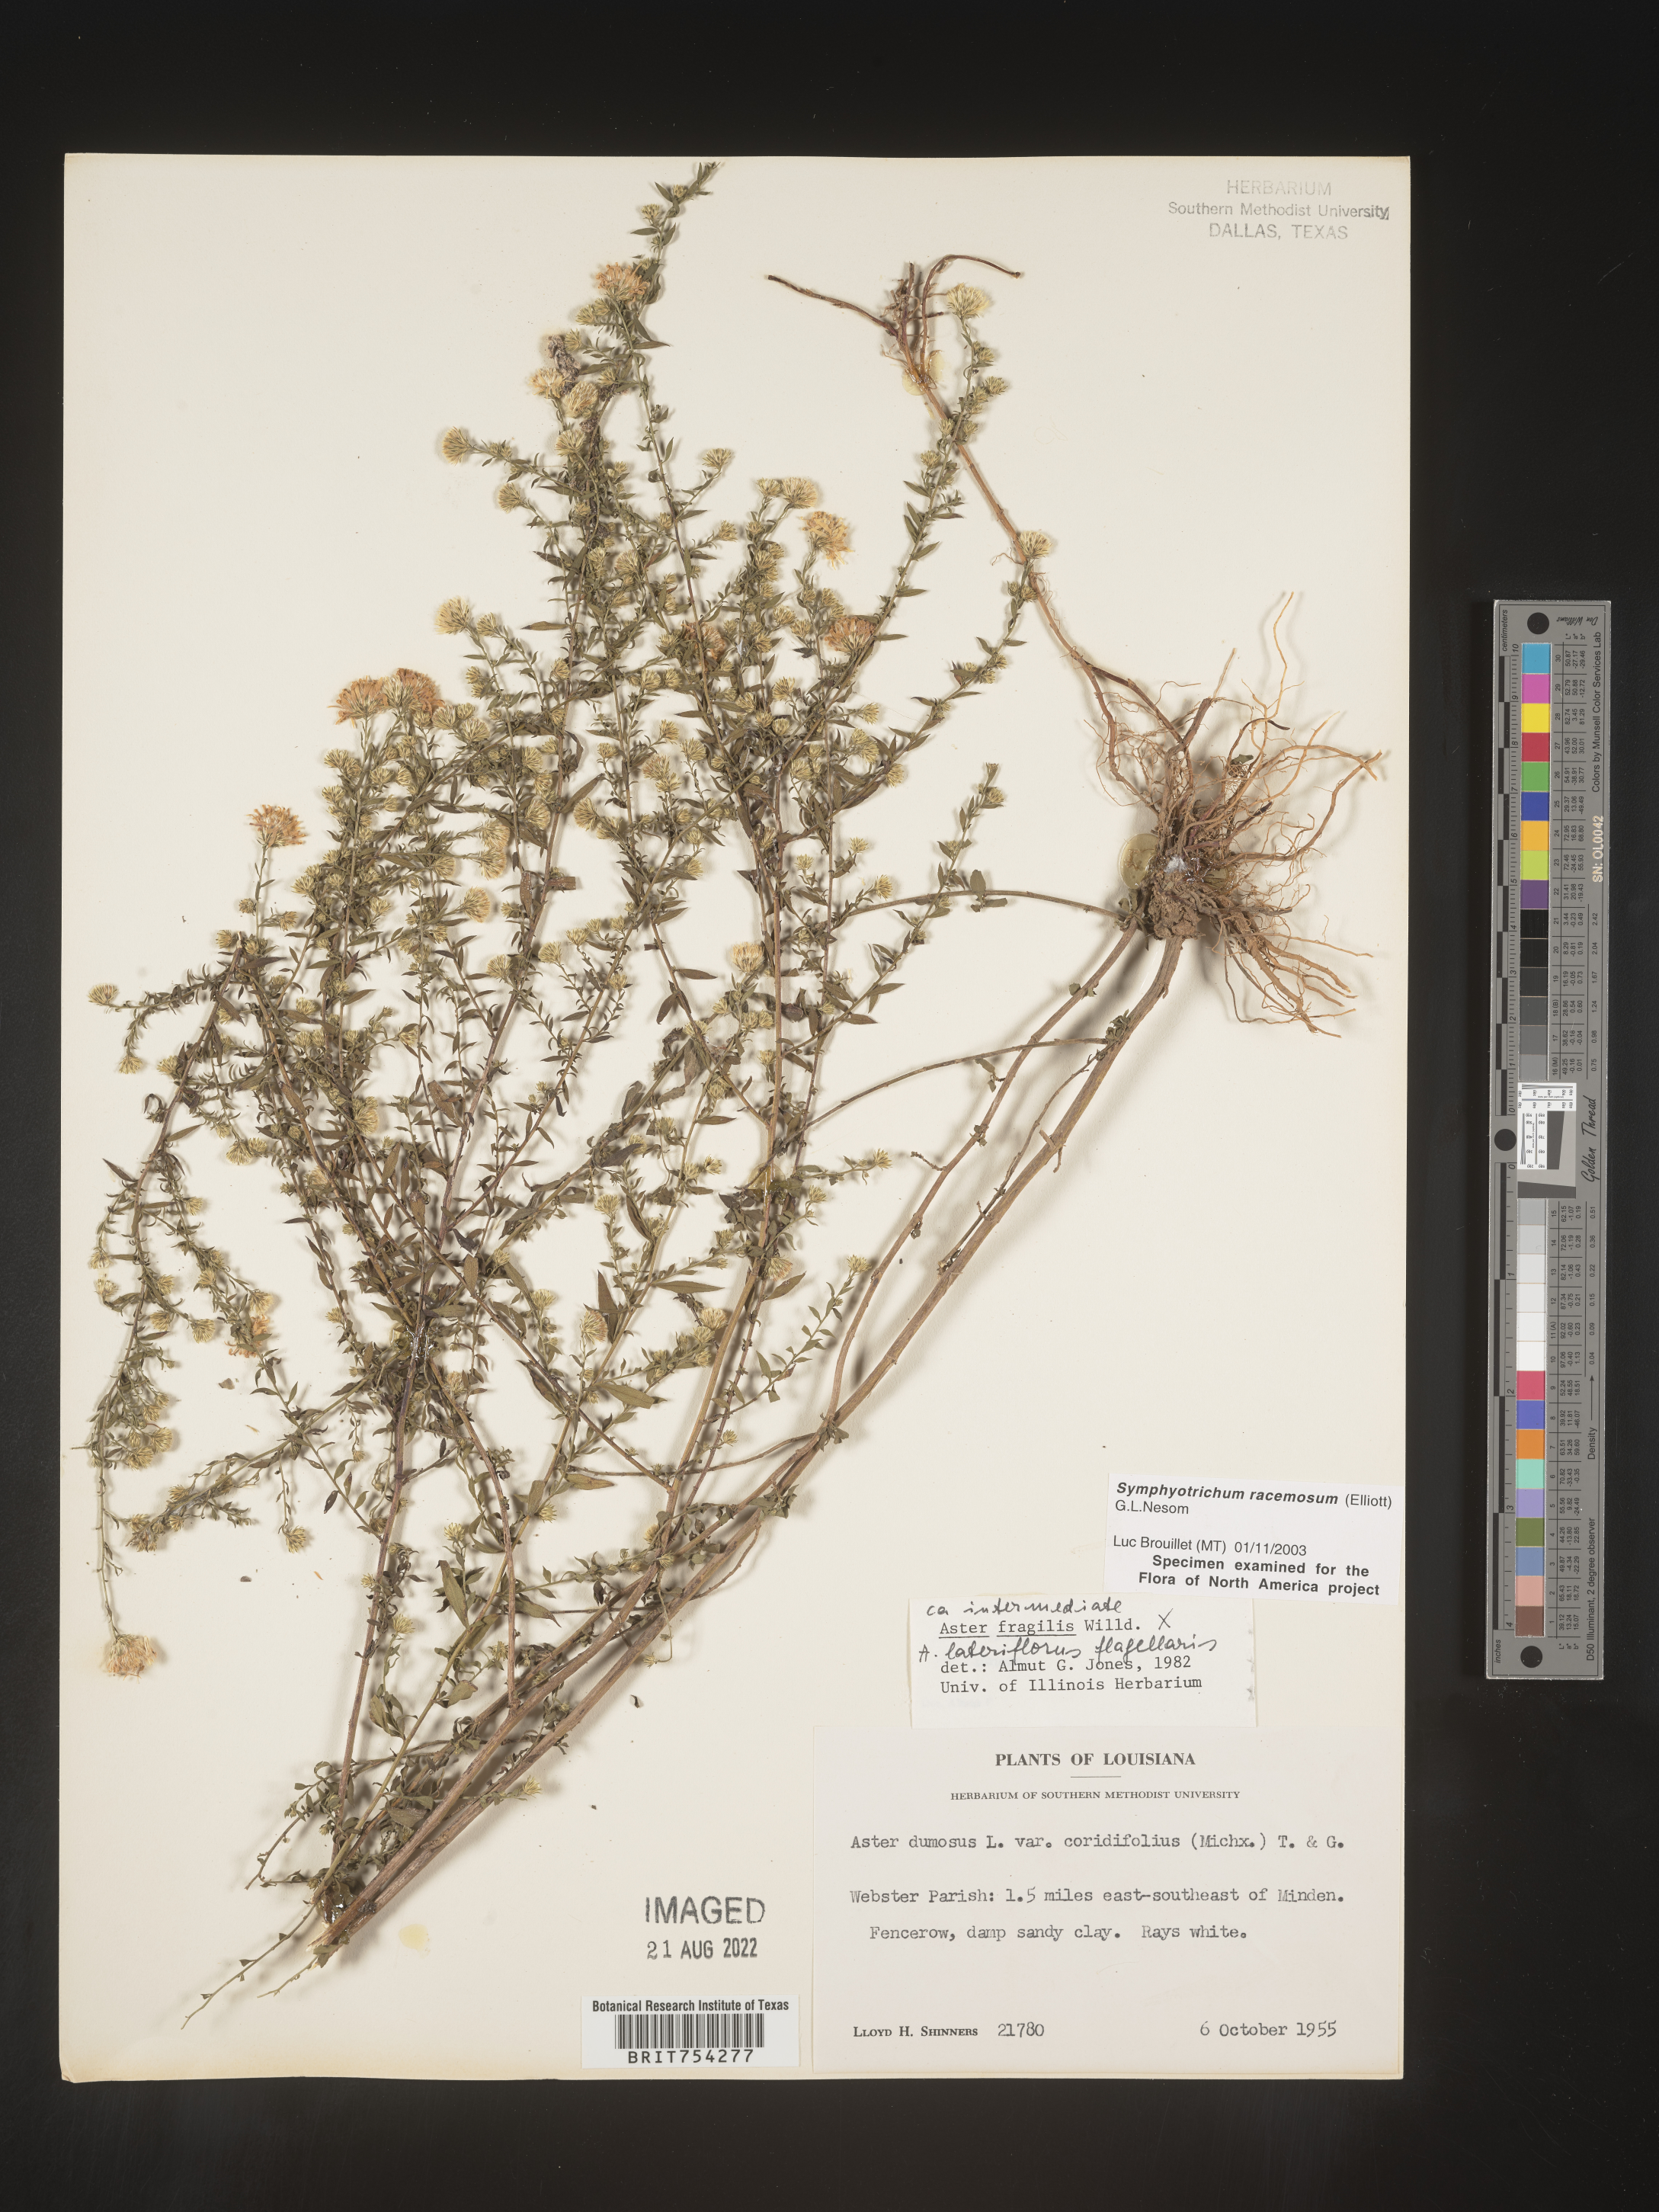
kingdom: Plantae
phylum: Tracheophyta
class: Magnoliopsida
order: Asterales
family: Asteraceae
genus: Symphyotrichum
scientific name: Symphyotrichum racemosum
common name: Small white aster
